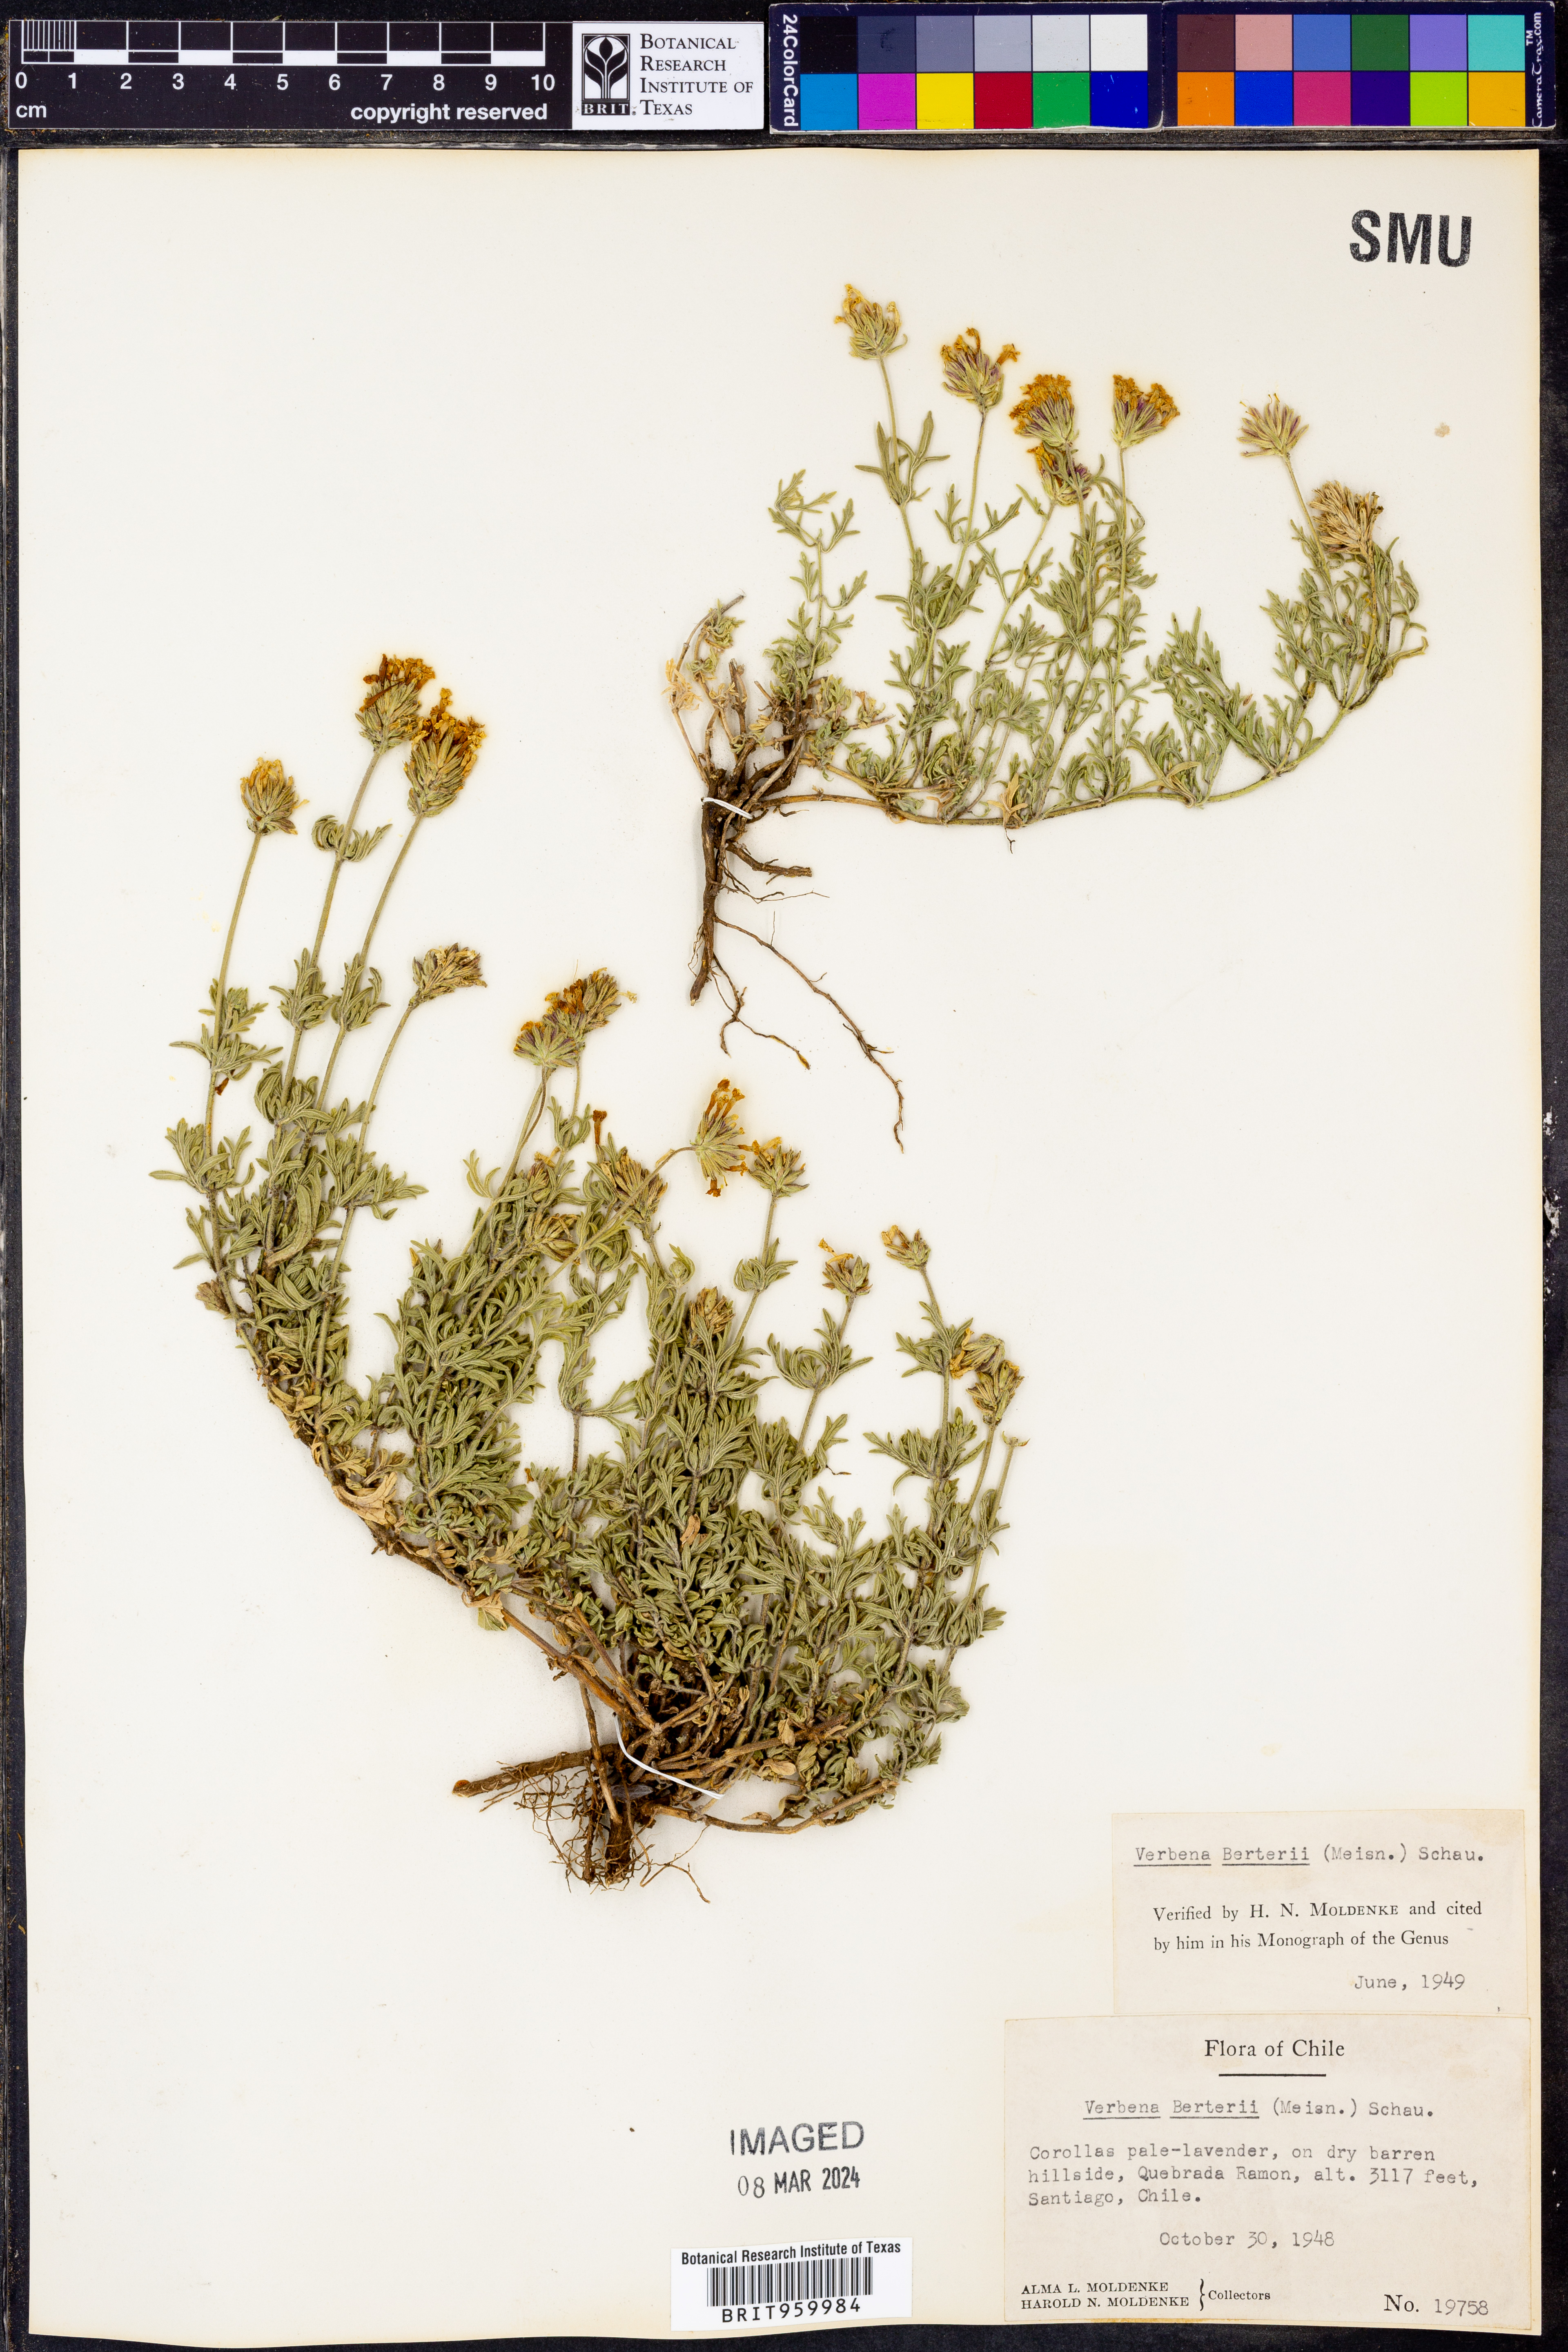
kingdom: Plantae
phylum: Tracheophyta
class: Magnoliopsida
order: Lamiales
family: Verbenaceae
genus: Verbena
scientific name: Verbena
